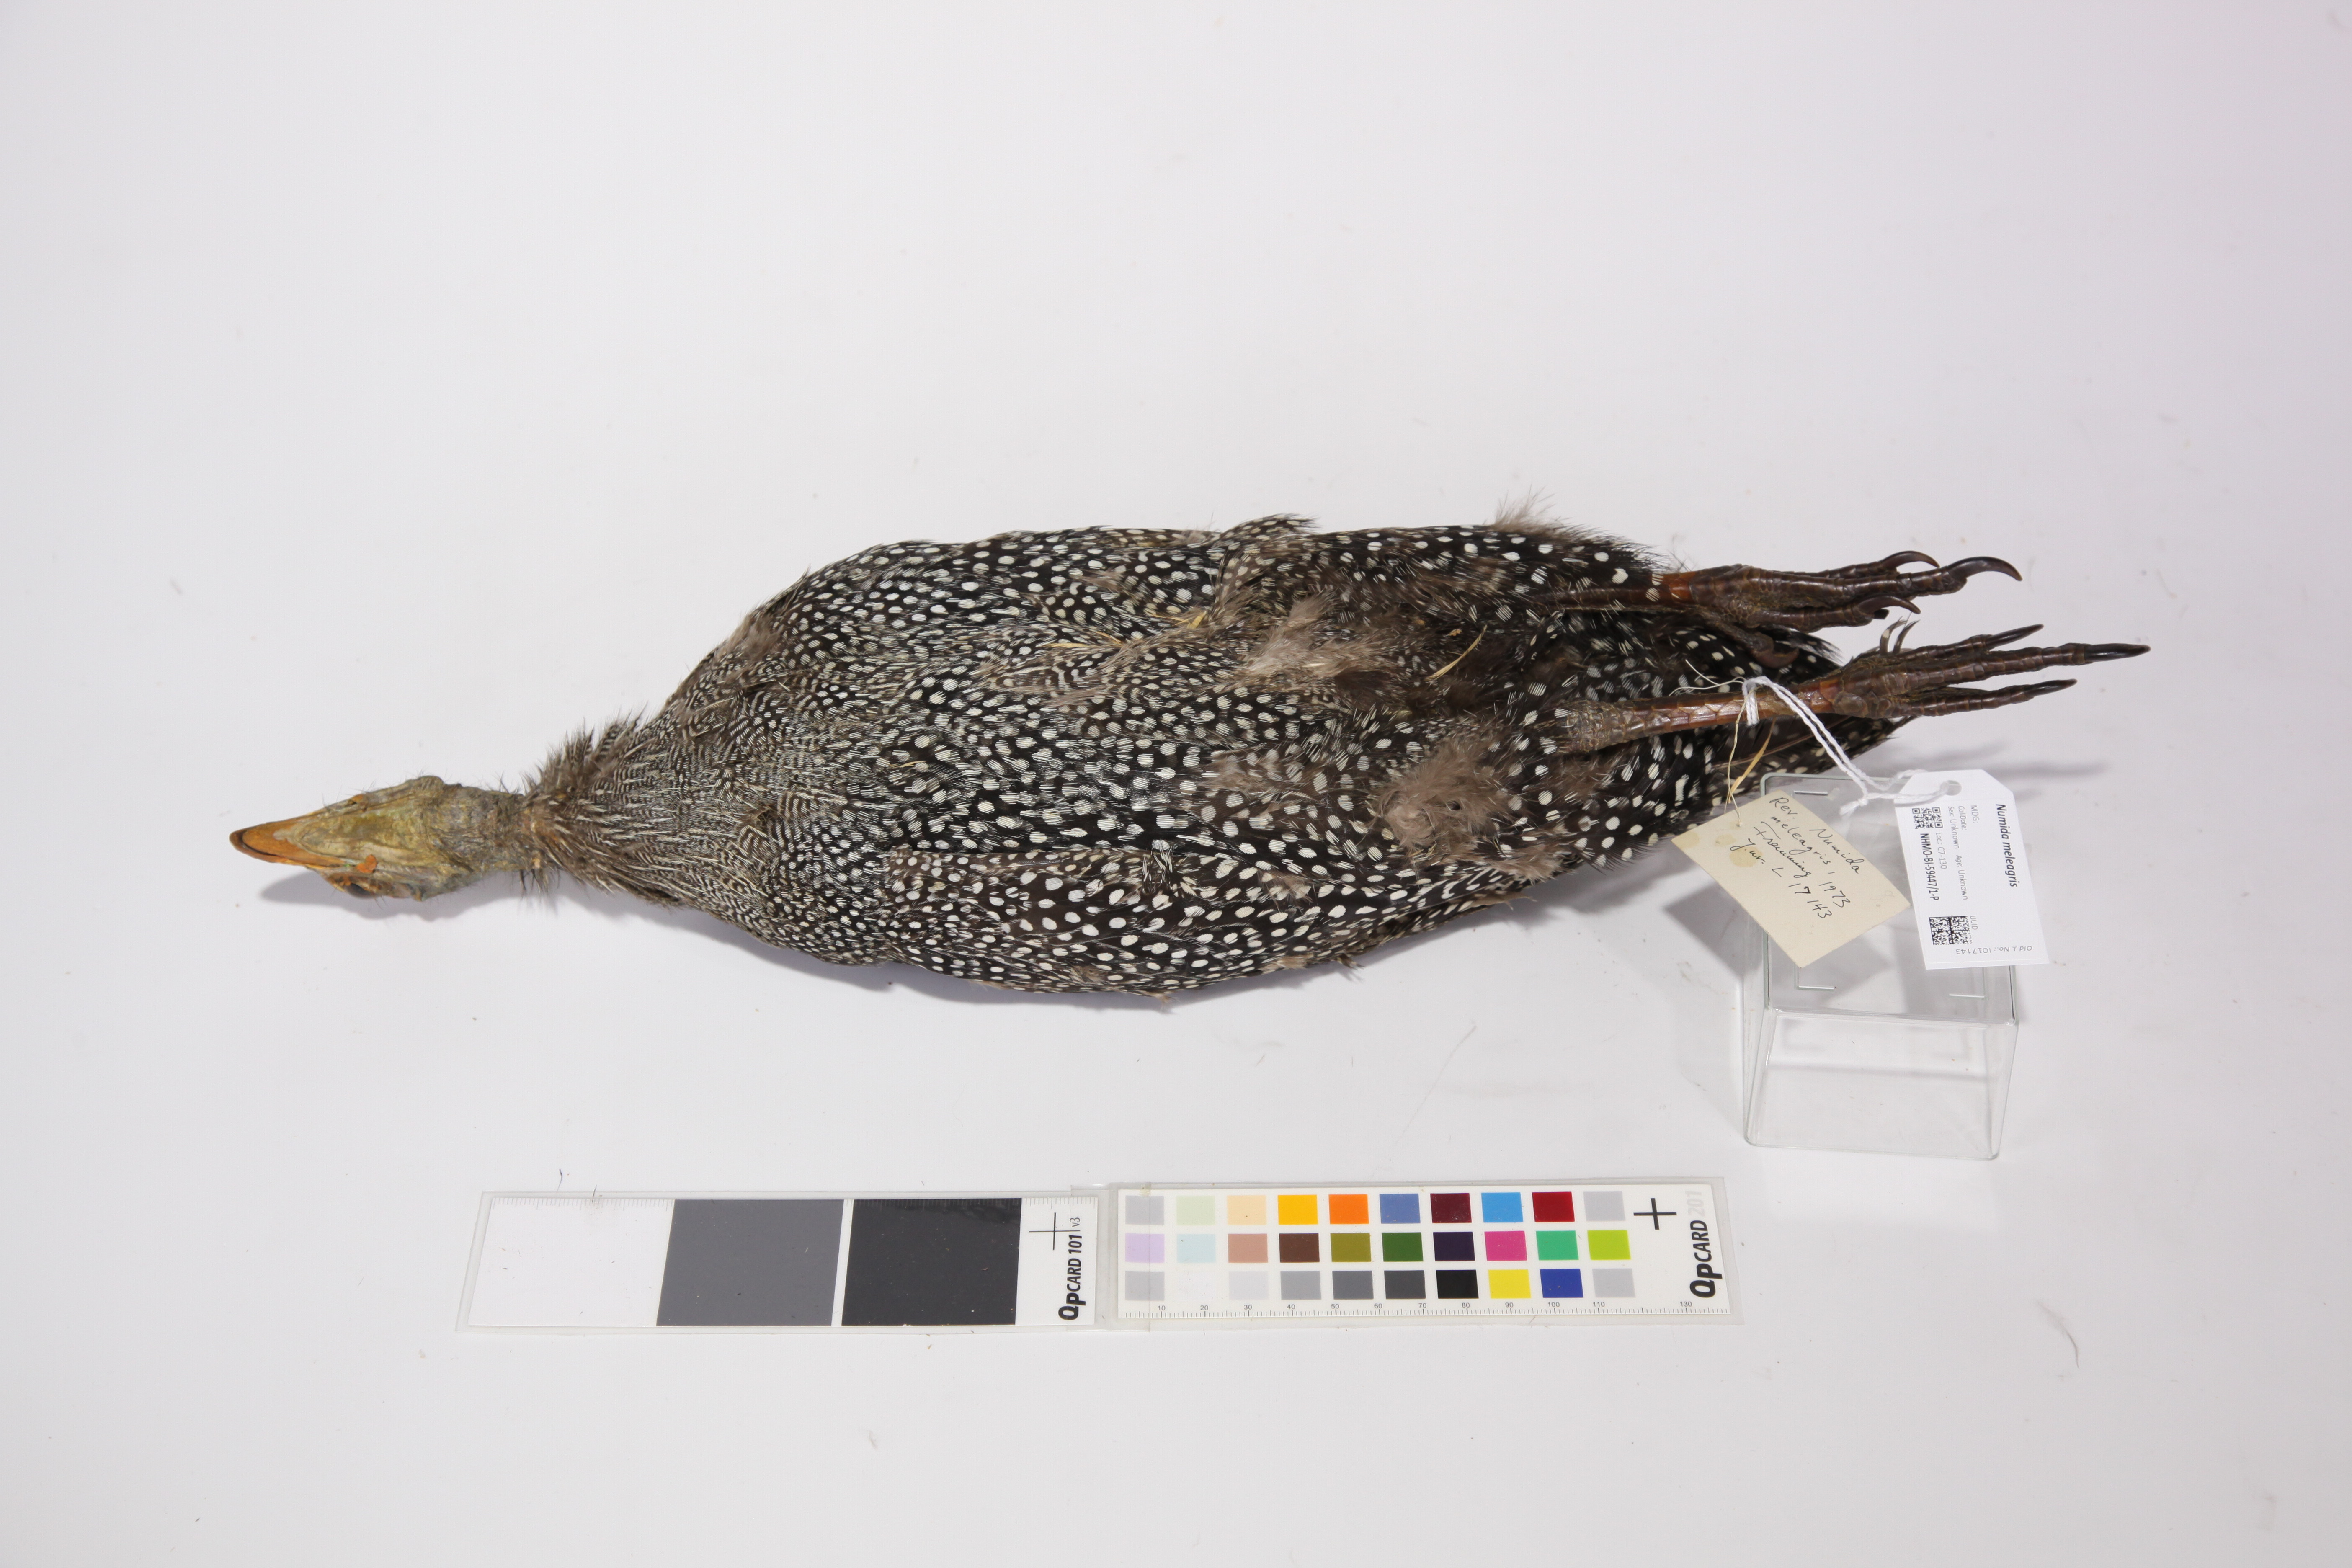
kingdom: Animalia
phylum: Chordata
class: Aves
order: Galliformes
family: Numididae
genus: Numida
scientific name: Numida meleagris
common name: Helmeted guineafowl
